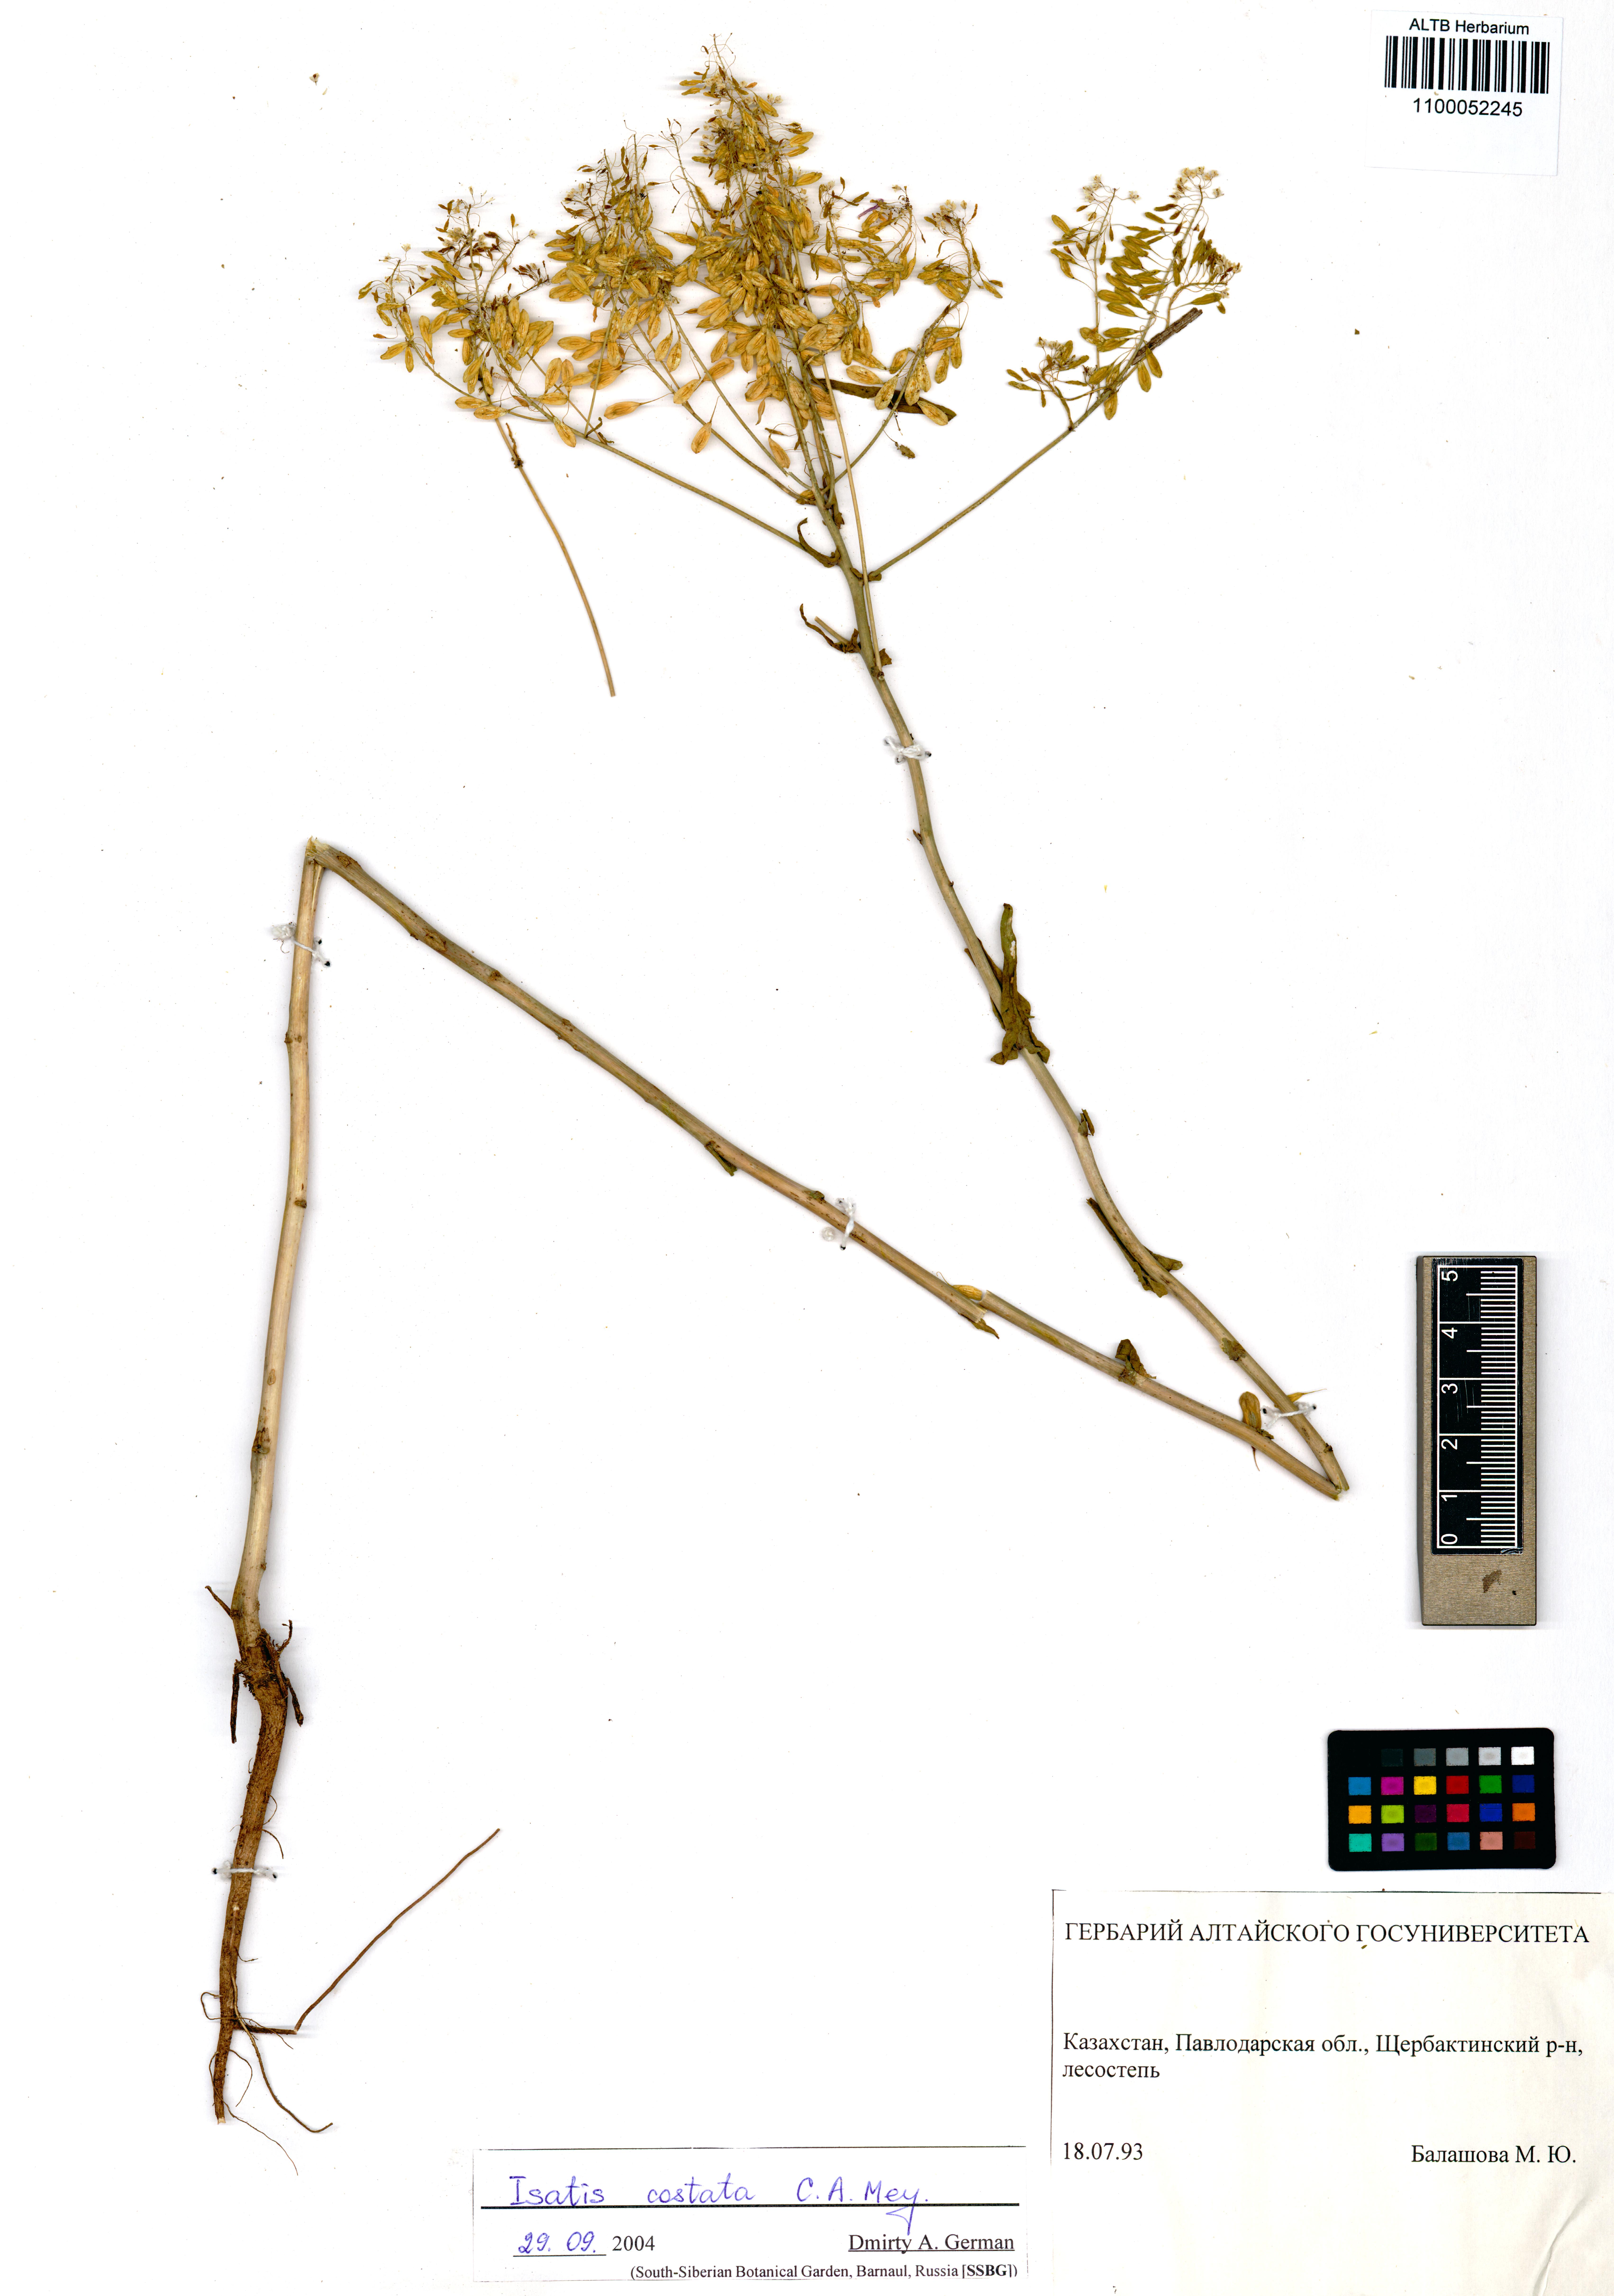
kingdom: Plantae
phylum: Tracheophyta
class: Magnoliopsida
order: Brassicales
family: Brassicaceae
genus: Isatis
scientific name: Isatis costata
